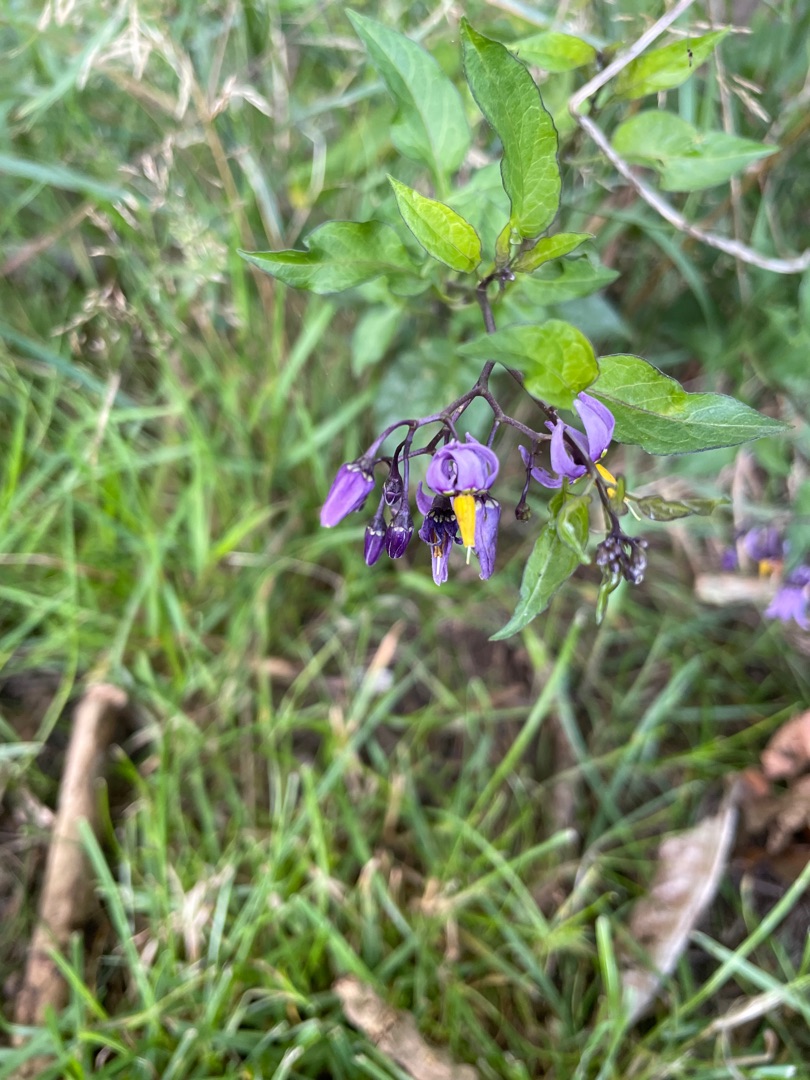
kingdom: Plantae
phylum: Tracheophyta
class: Magnoliopsida
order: Solanales
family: Solanaceae
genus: Solanum
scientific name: Solanum dulcamara
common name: Bittersød natskygge
